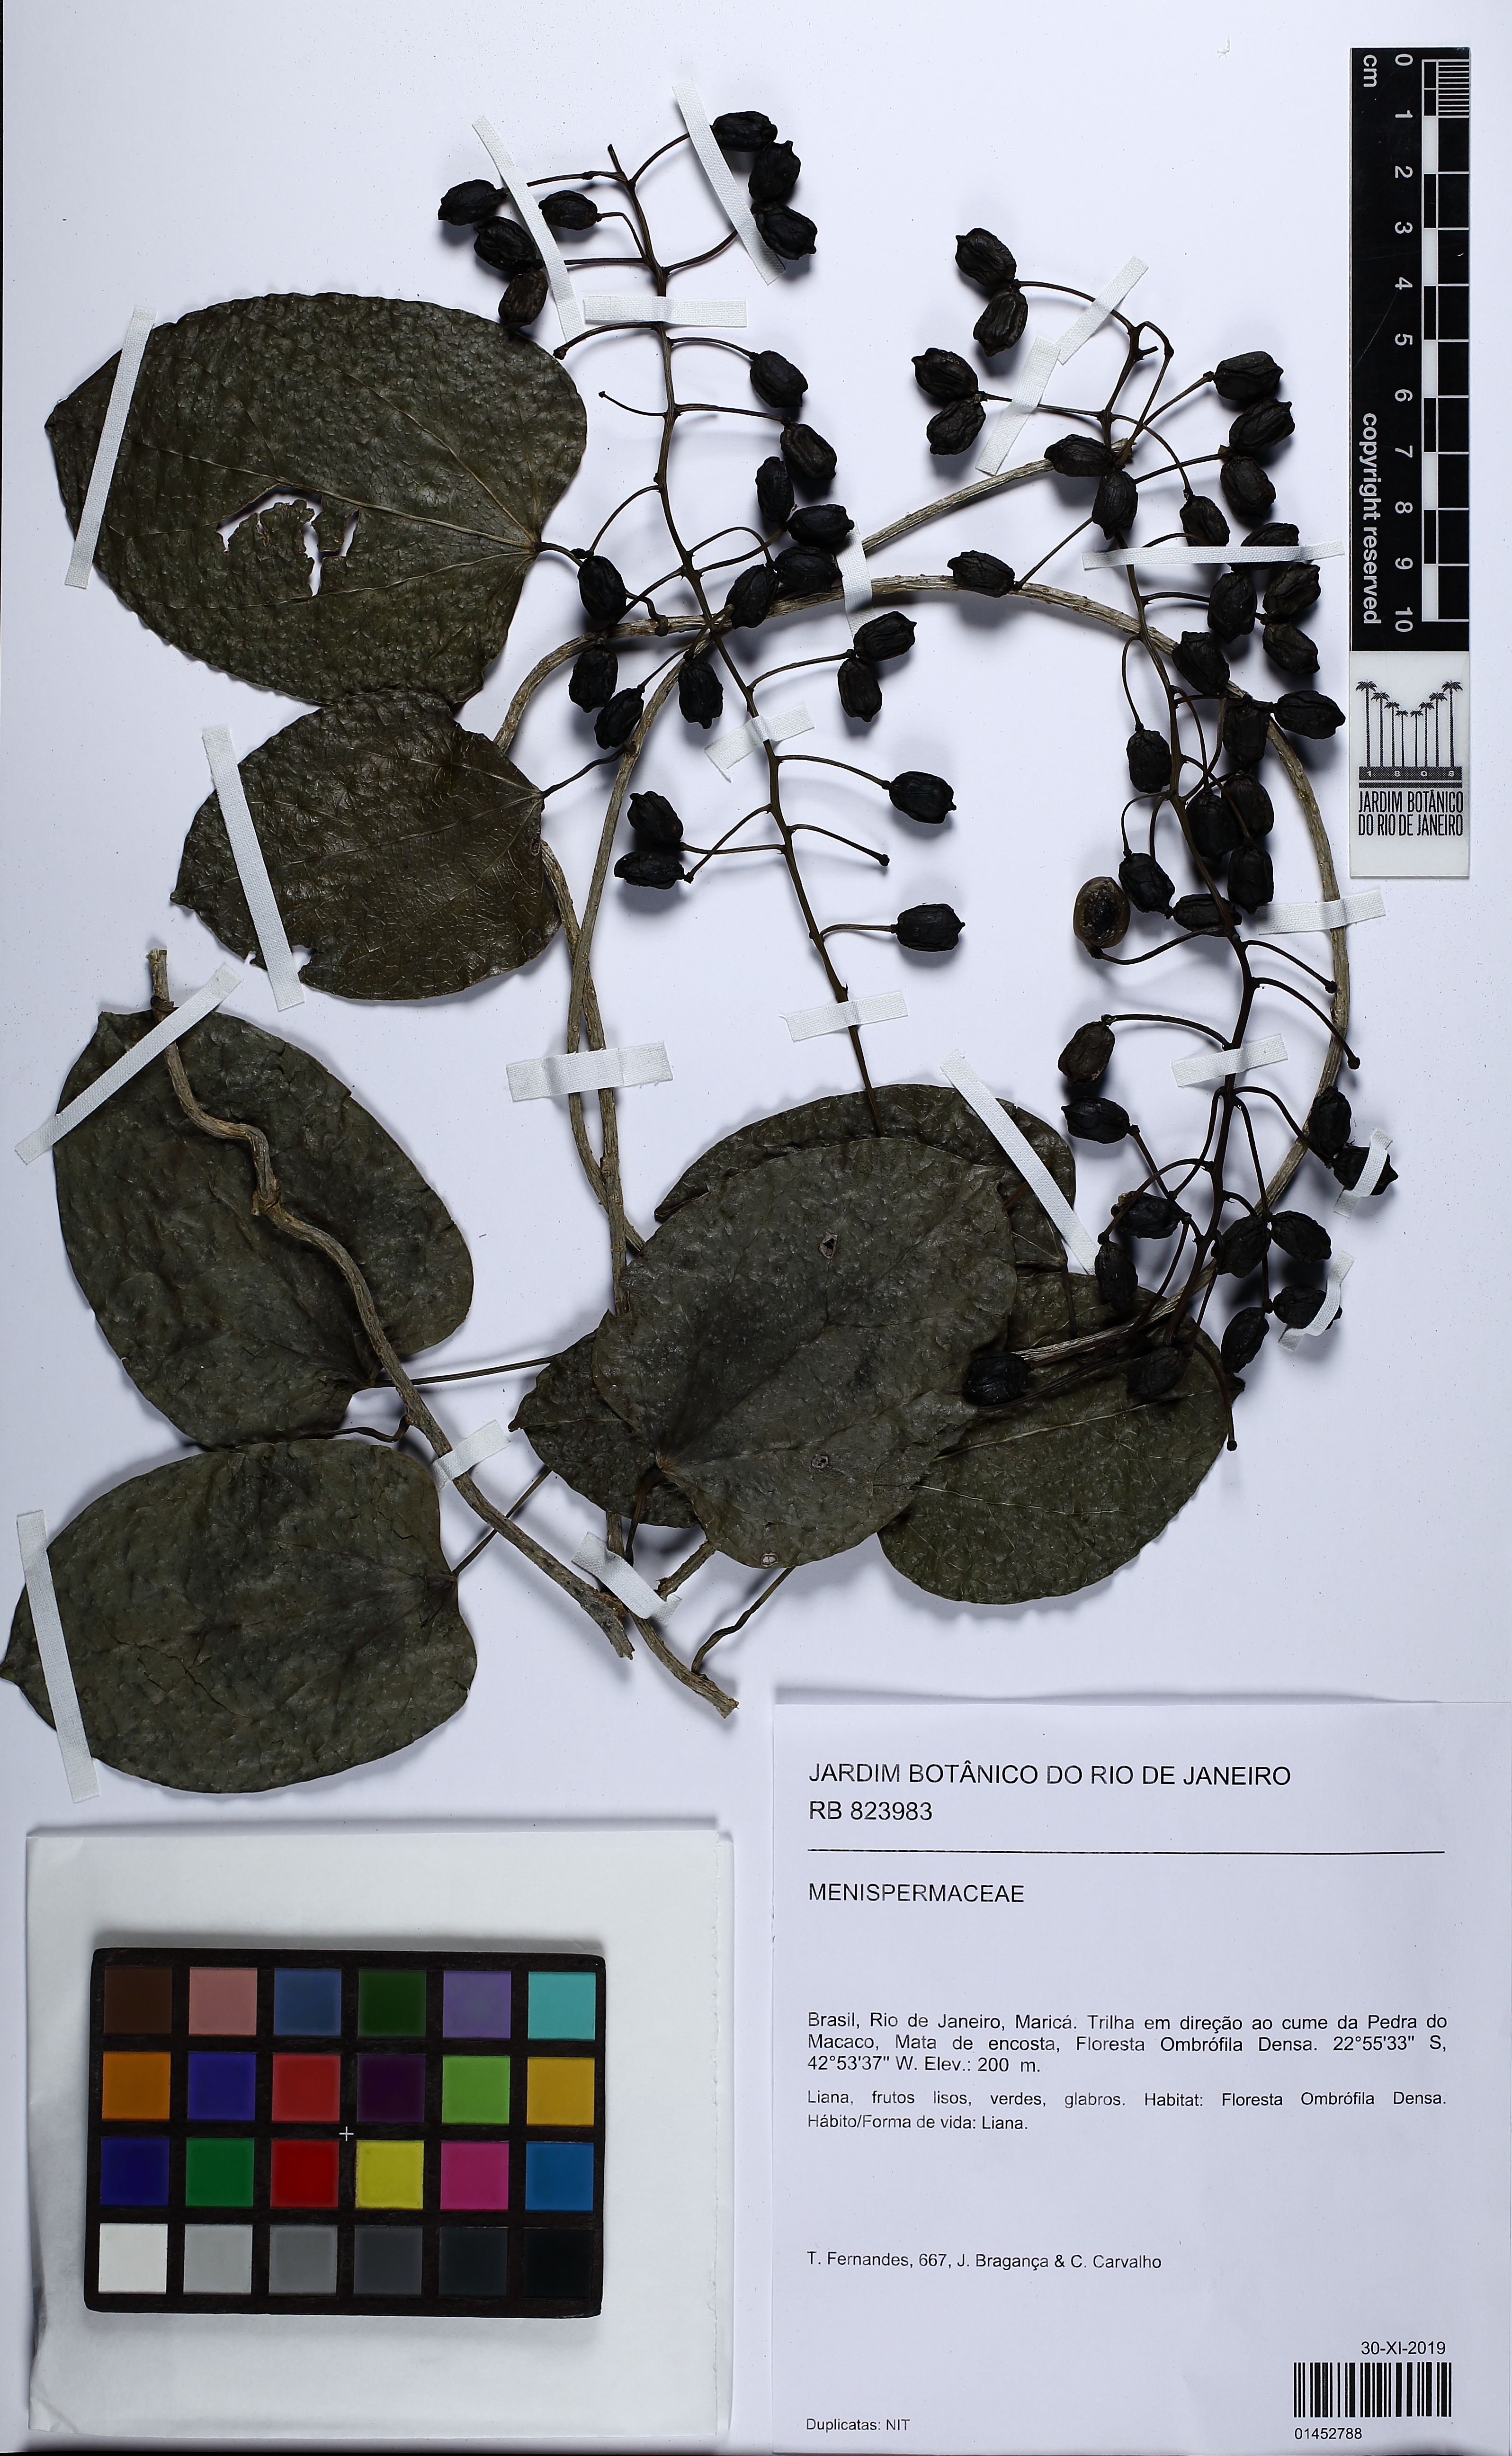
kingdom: Plantae
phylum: Tracheophyta
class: Magnoliopsida
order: Ranunculales
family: Menispermaceae
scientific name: Menispermaceae
